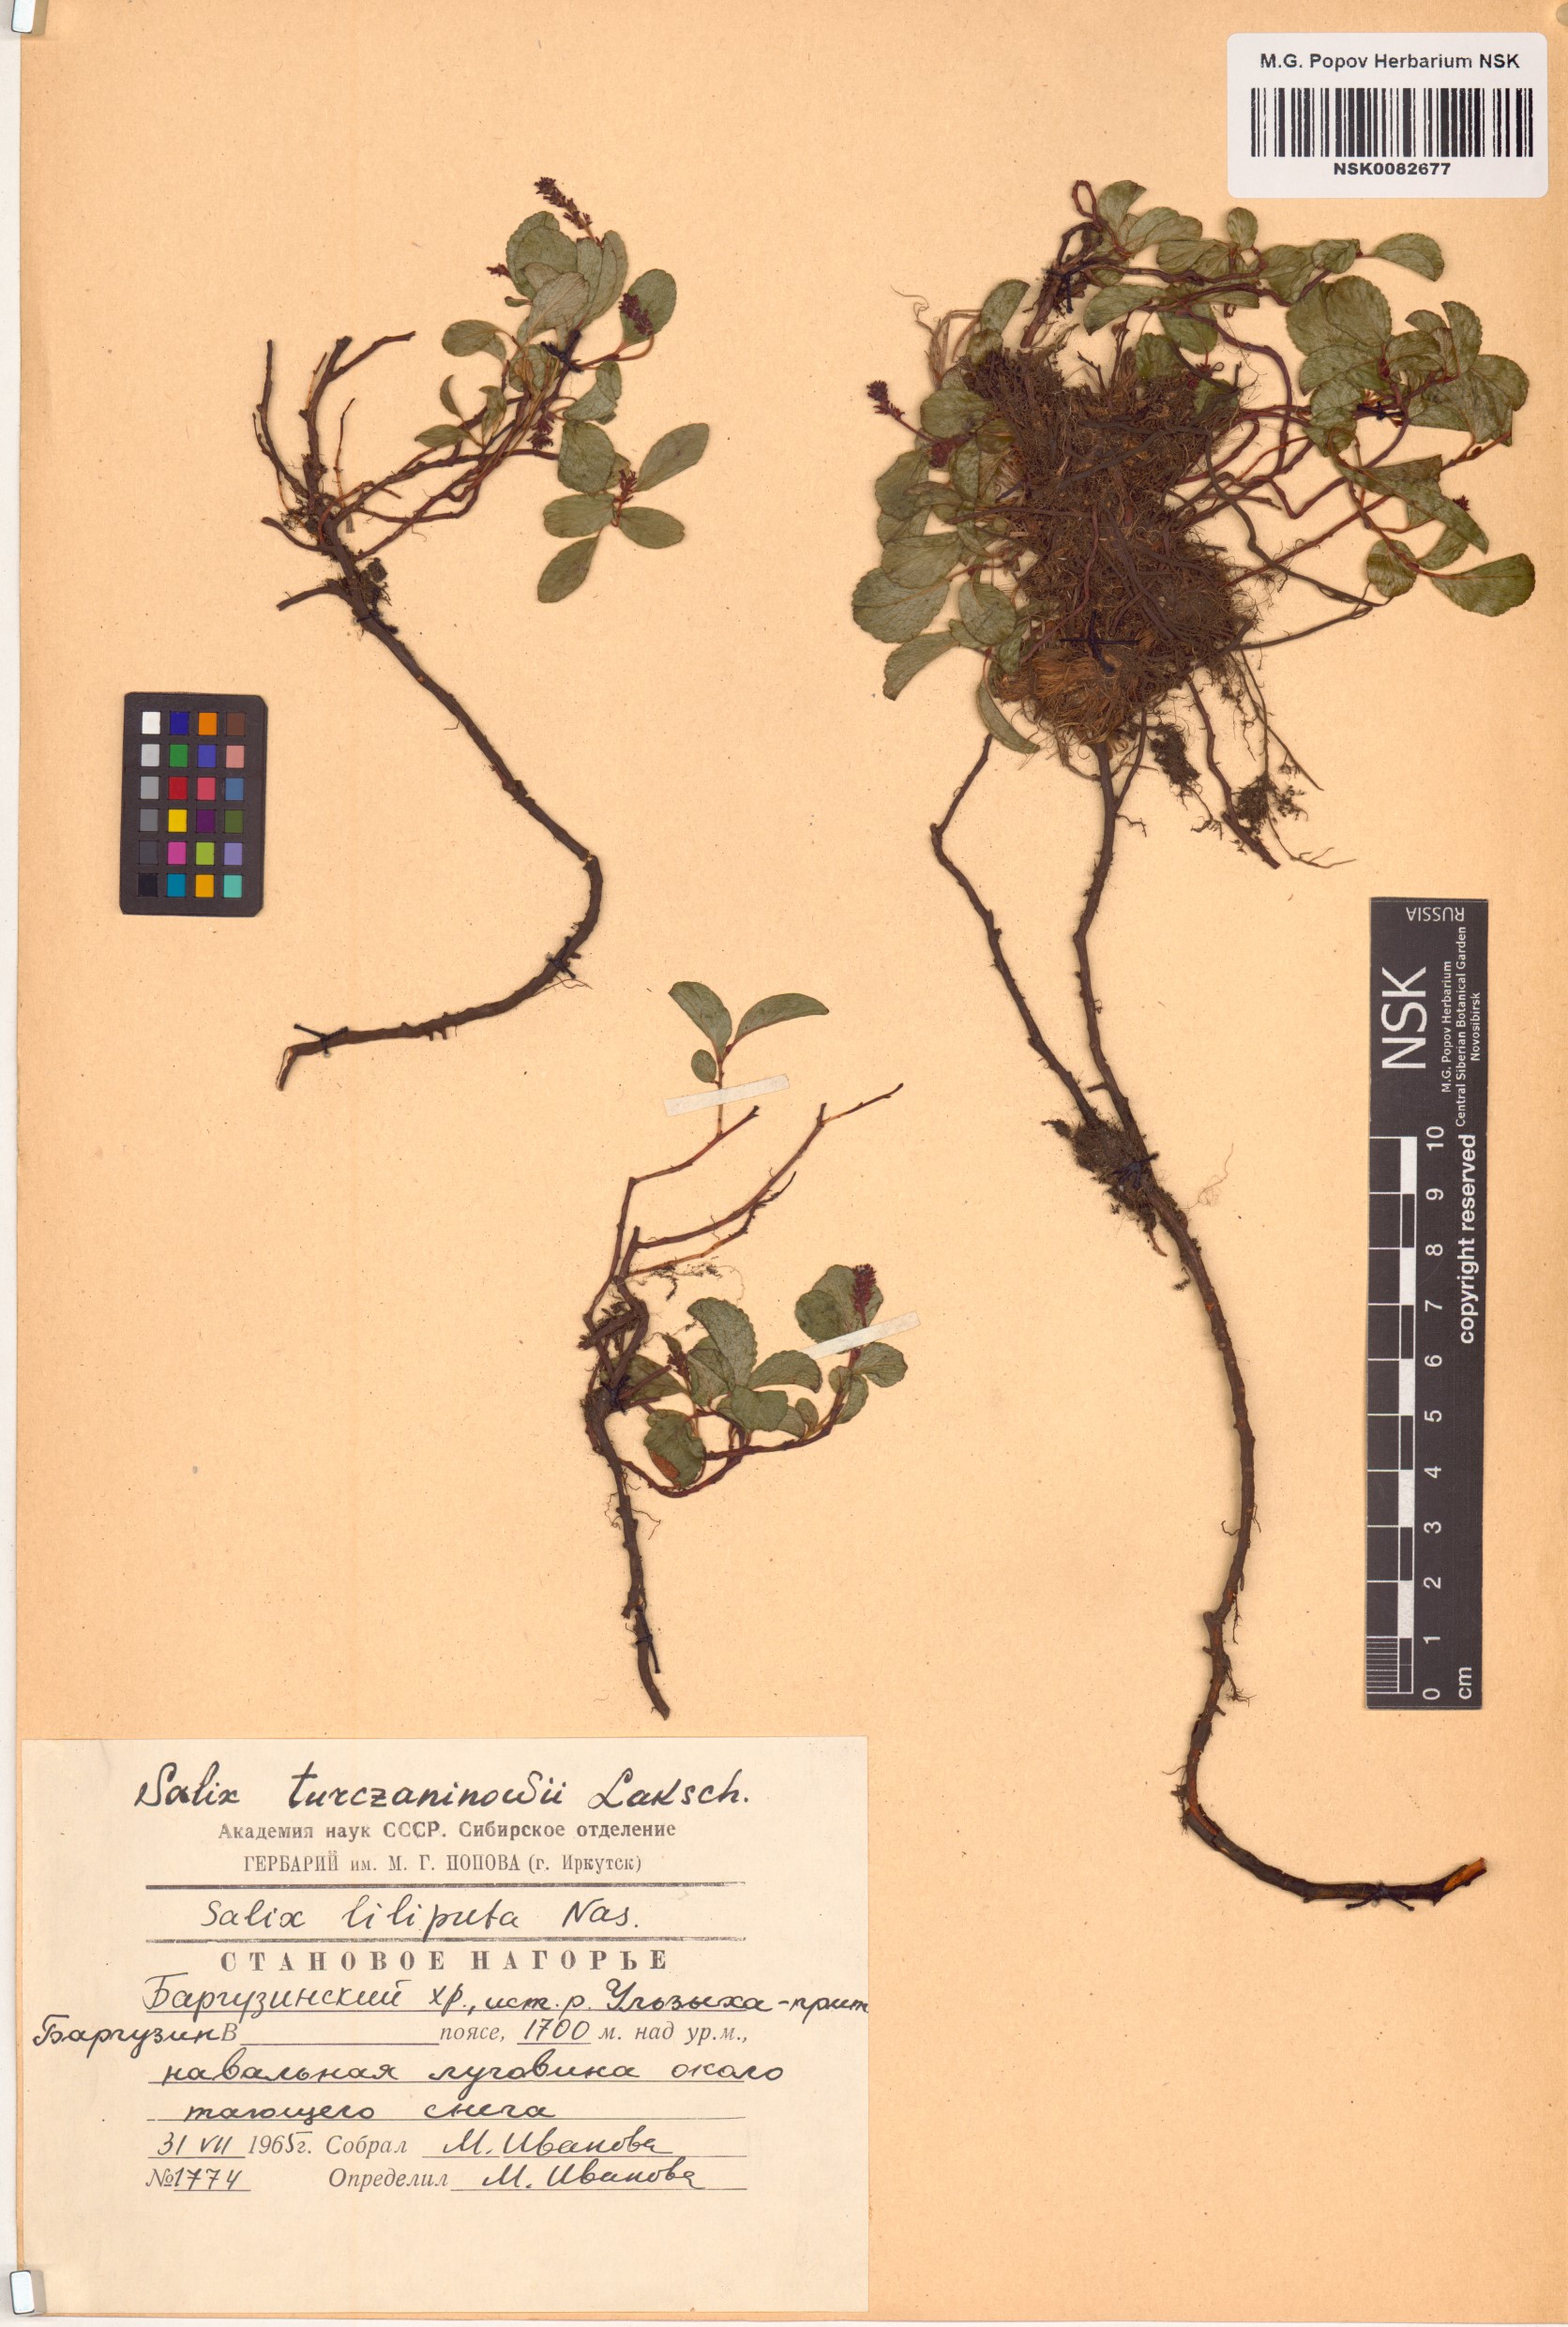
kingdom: Plantae
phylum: Tracheophyta
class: Magnoliopsida
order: Malpighiales
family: Salicaceae
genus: Salix
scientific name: Salix turczaninowii
